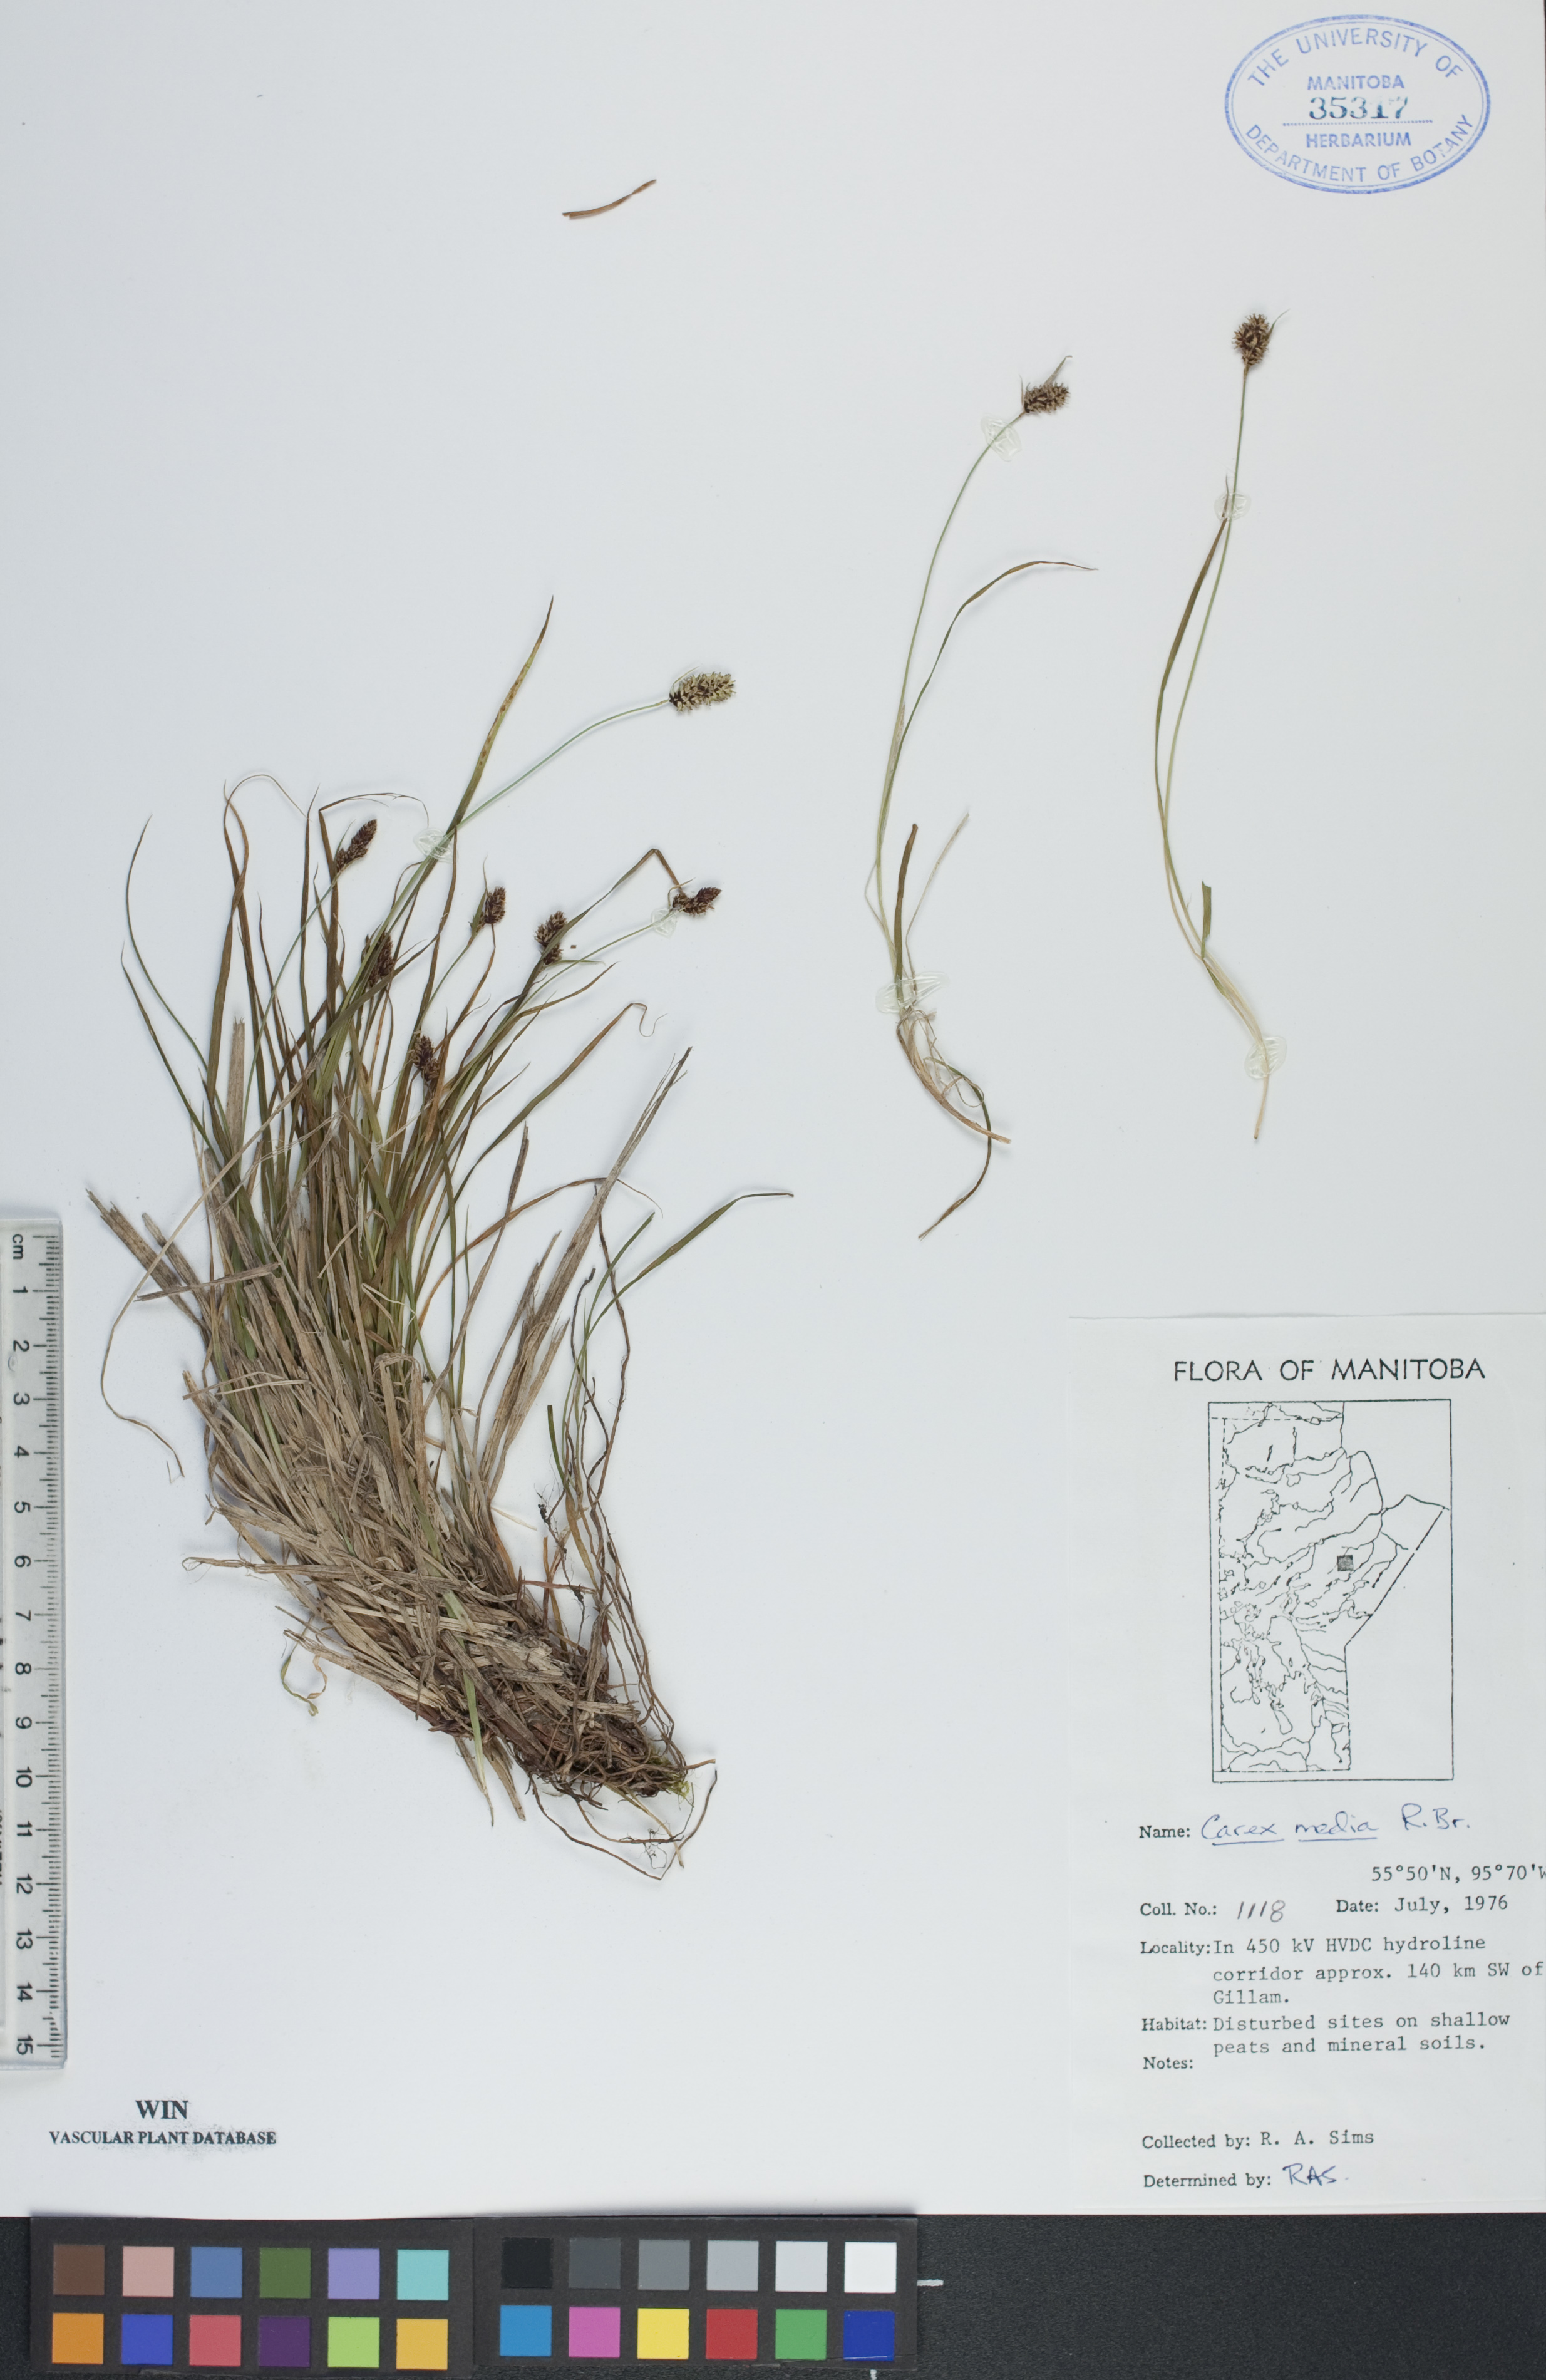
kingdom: Plantae
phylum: Tracheophyta
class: Liliopsida
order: Poales
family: Cyperaceae
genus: Carex
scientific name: Carex media
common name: Alpine sedge
